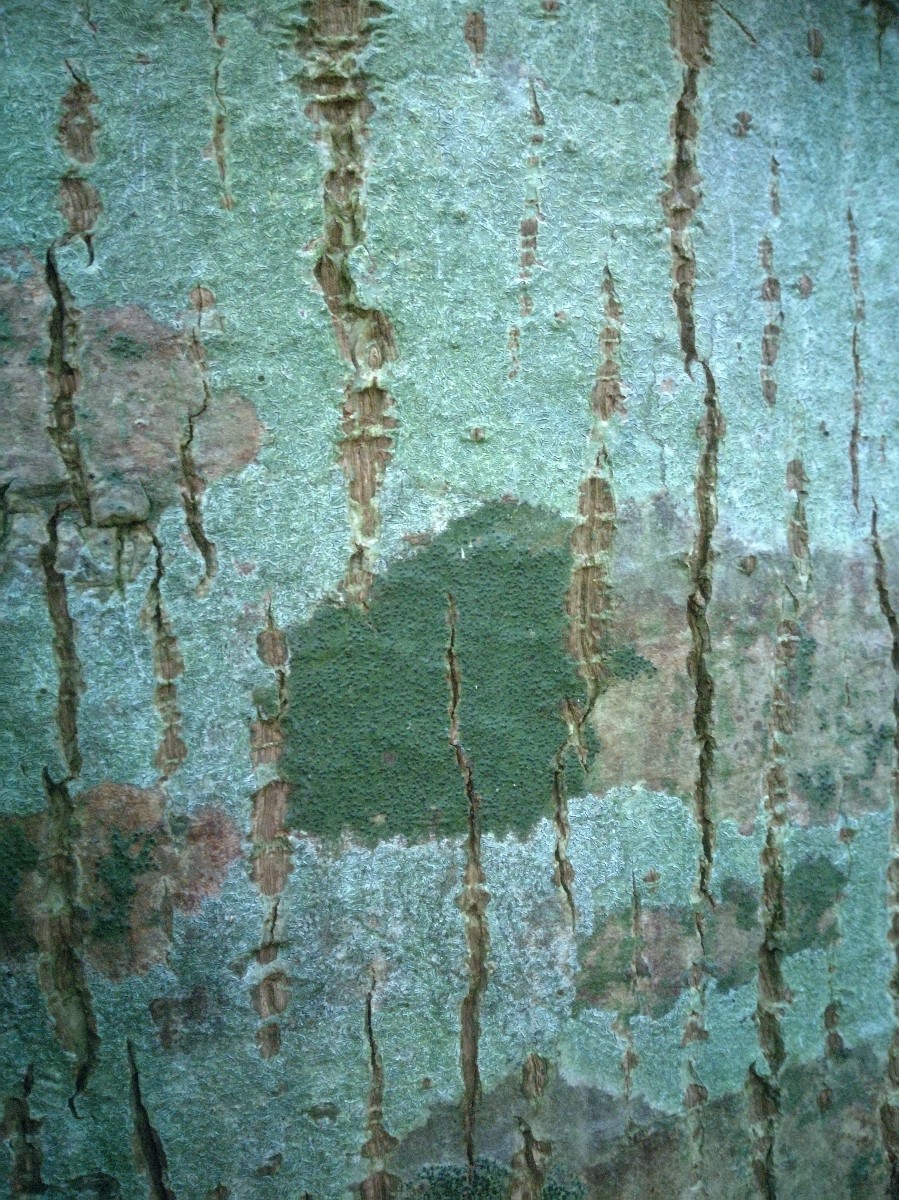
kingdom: Fungi
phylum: Ascomycota
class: Eurotiomycetes
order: Pyrenulales
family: Pyrenulaceae
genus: Pyrenula
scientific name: Pyrenula nitidella
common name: liden kernelav
